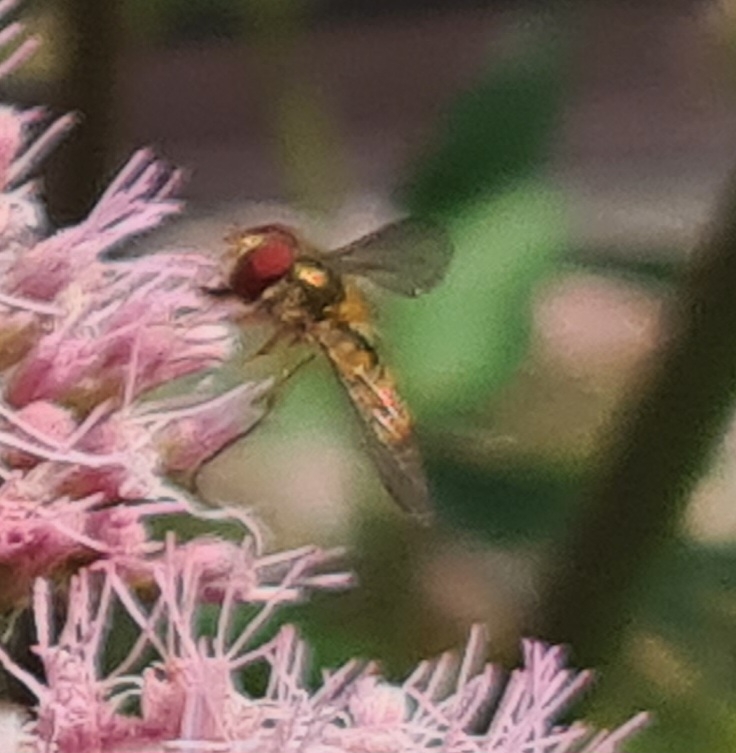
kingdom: Animalia
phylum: Arthropoda
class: Insecta
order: Diptera
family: Syrphidae
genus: Episyrphus
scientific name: Episyrphus balteatus
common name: Dobbeltbåndet svirreflue
